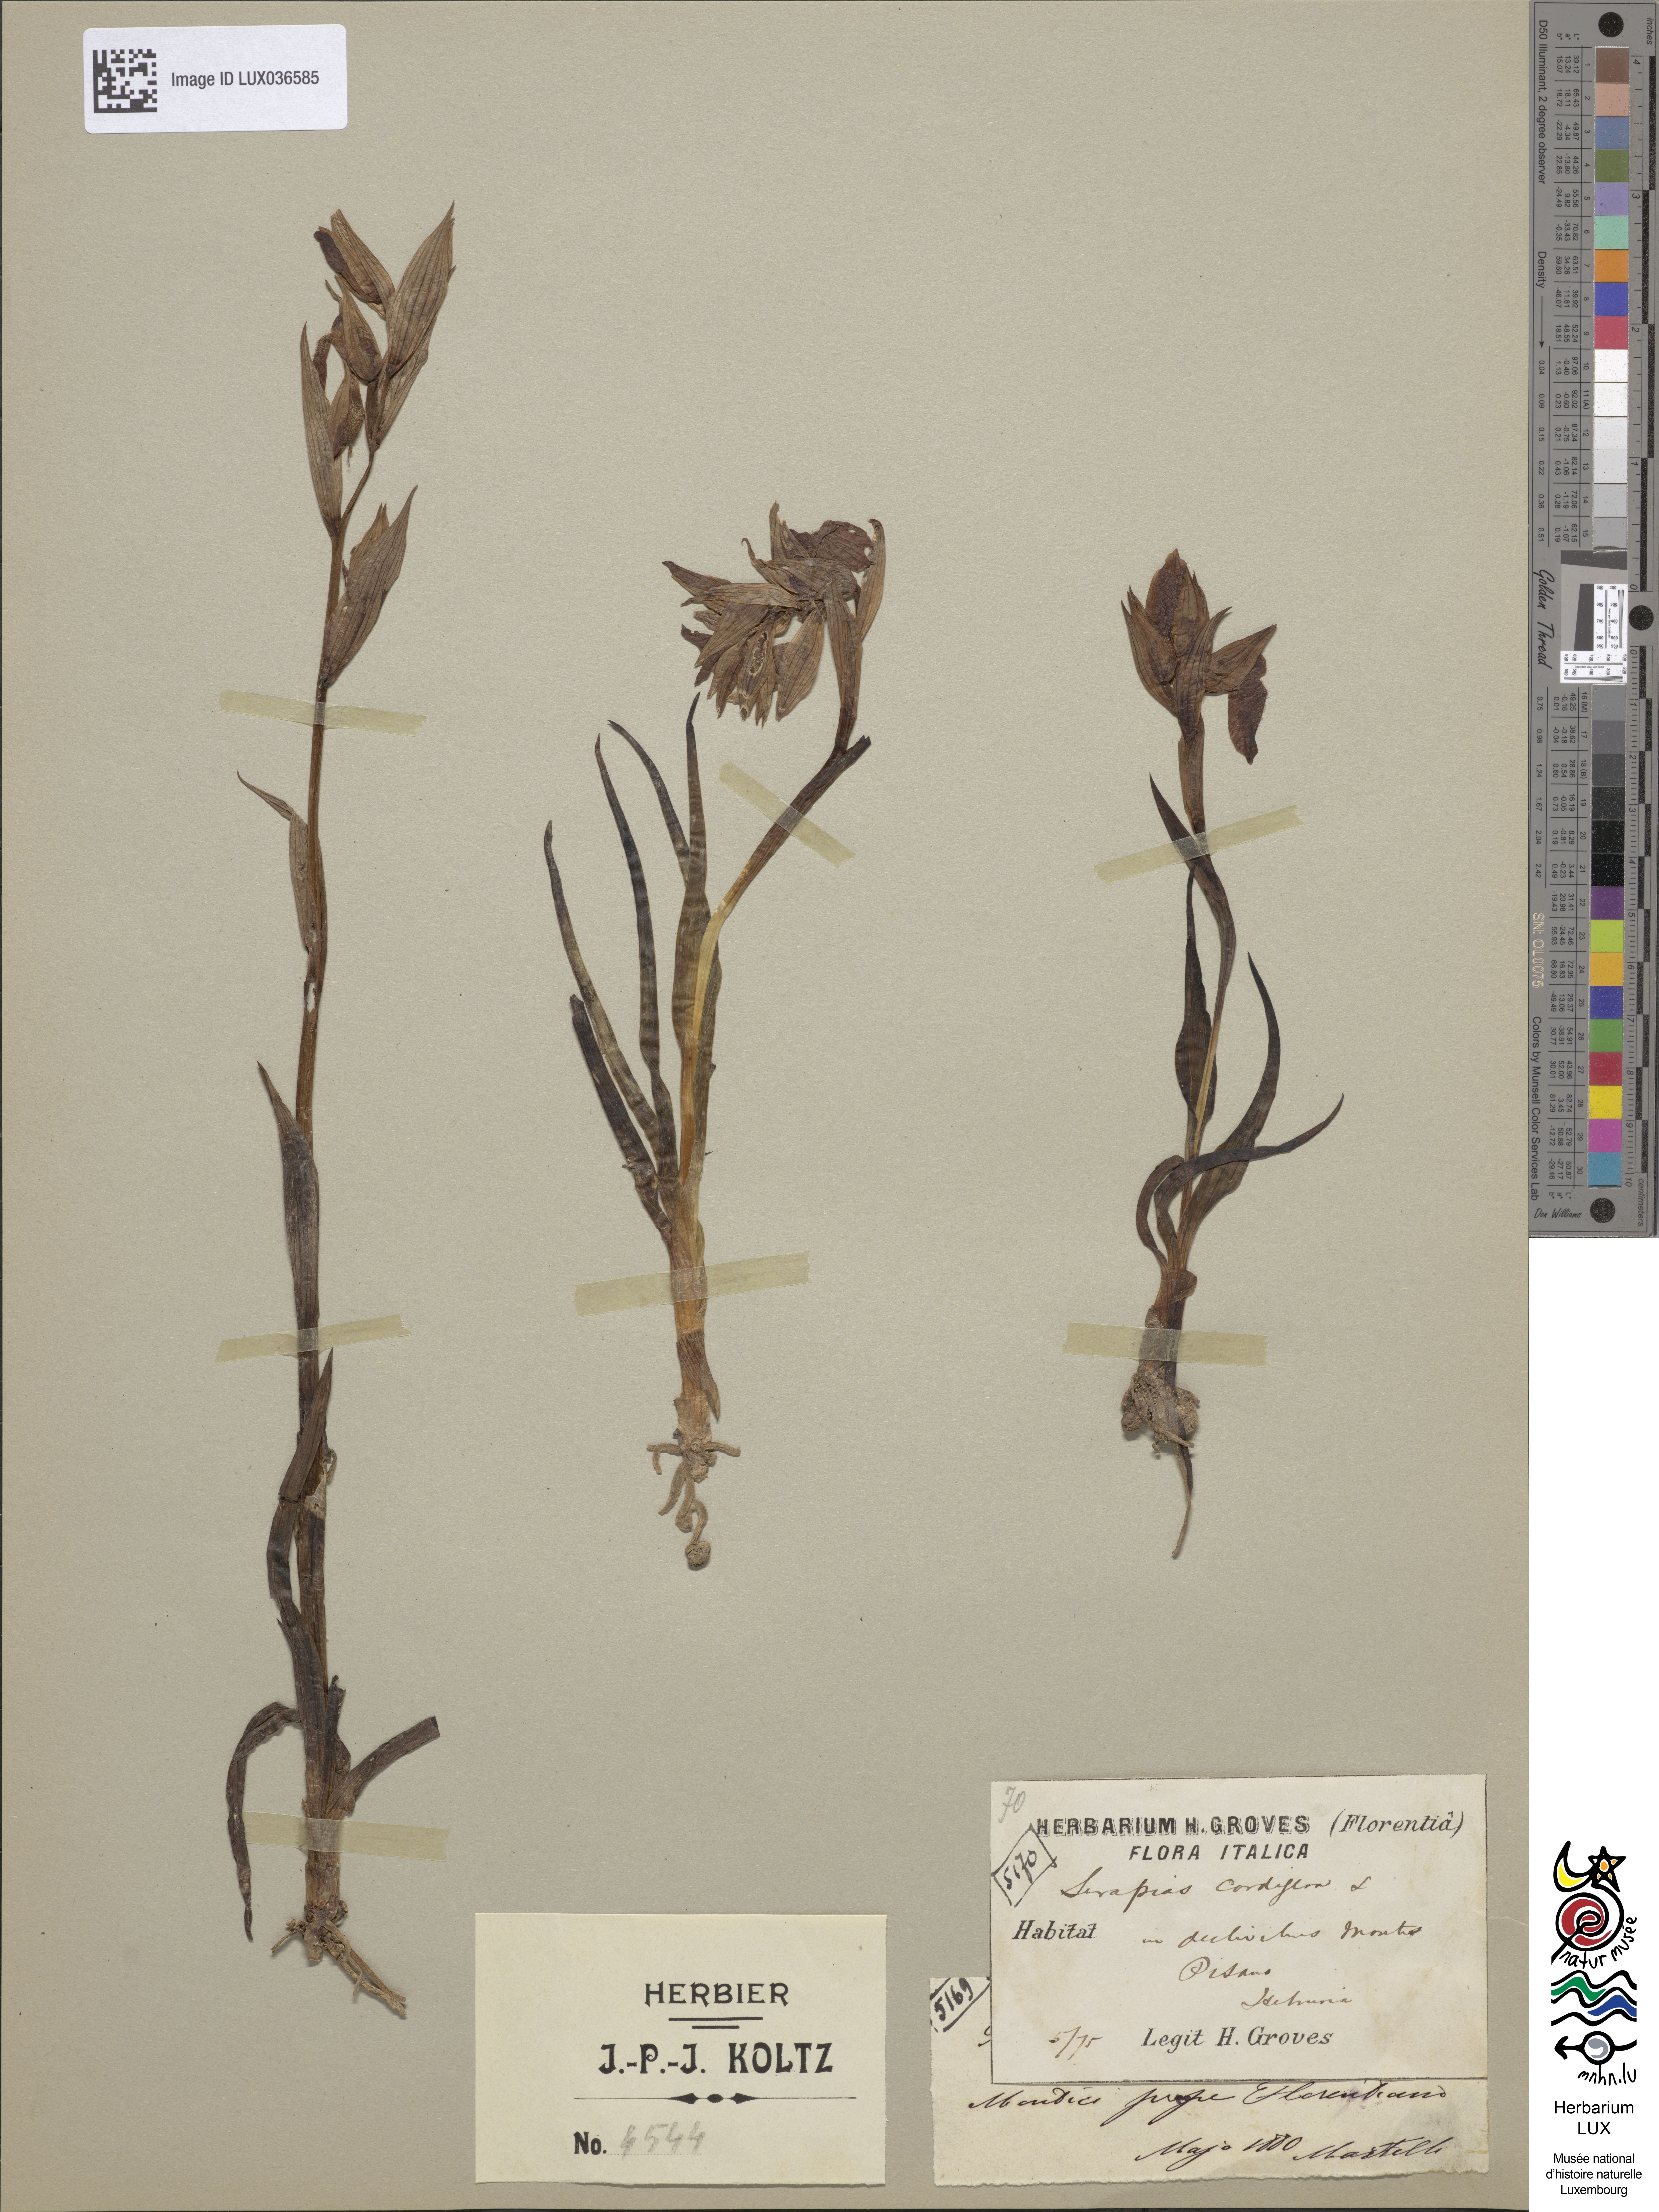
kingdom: Plantae
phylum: Tracheophyta
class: Liliopsida
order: Asparagales
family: Orchidaceae
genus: Serapias
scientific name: Serapias cordigera
